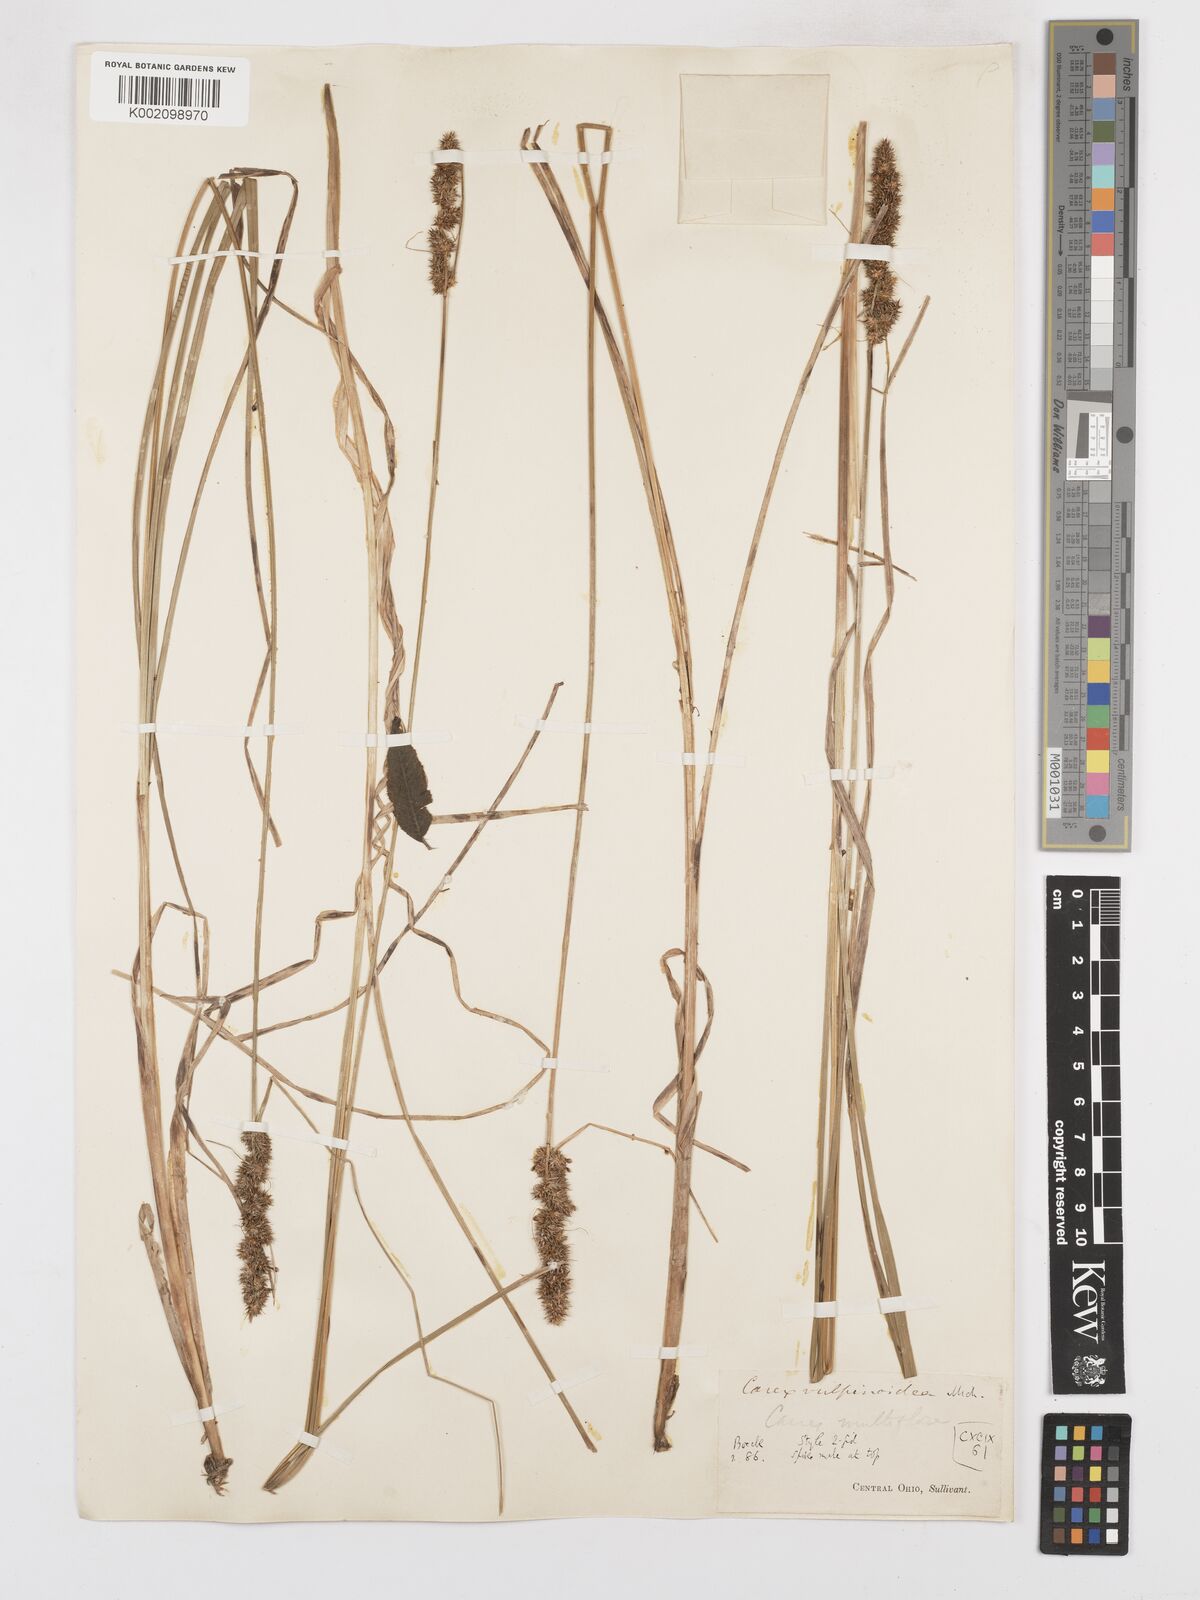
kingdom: Plantae
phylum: Tracheophyta
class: Liliopsida
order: Poales
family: Cyperaceae
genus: Carex
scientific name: Carex vulpinoidea
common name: American fox-sedge
